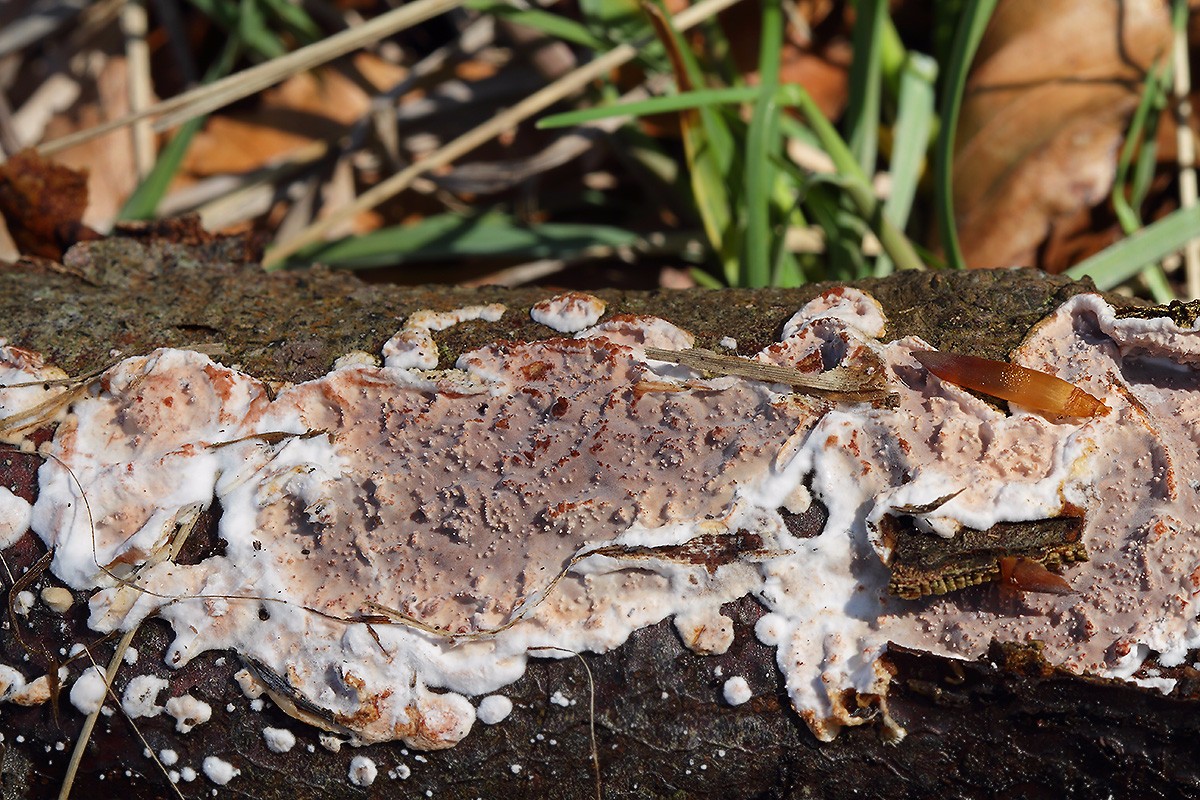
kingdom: Fungi
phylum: Basidiomycota
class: Agaricomycetes
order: Auriculariales
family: Auriculariaceae
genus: Heteroradulum
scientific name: Heteroradulum deglubens
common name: bævreskorpe
